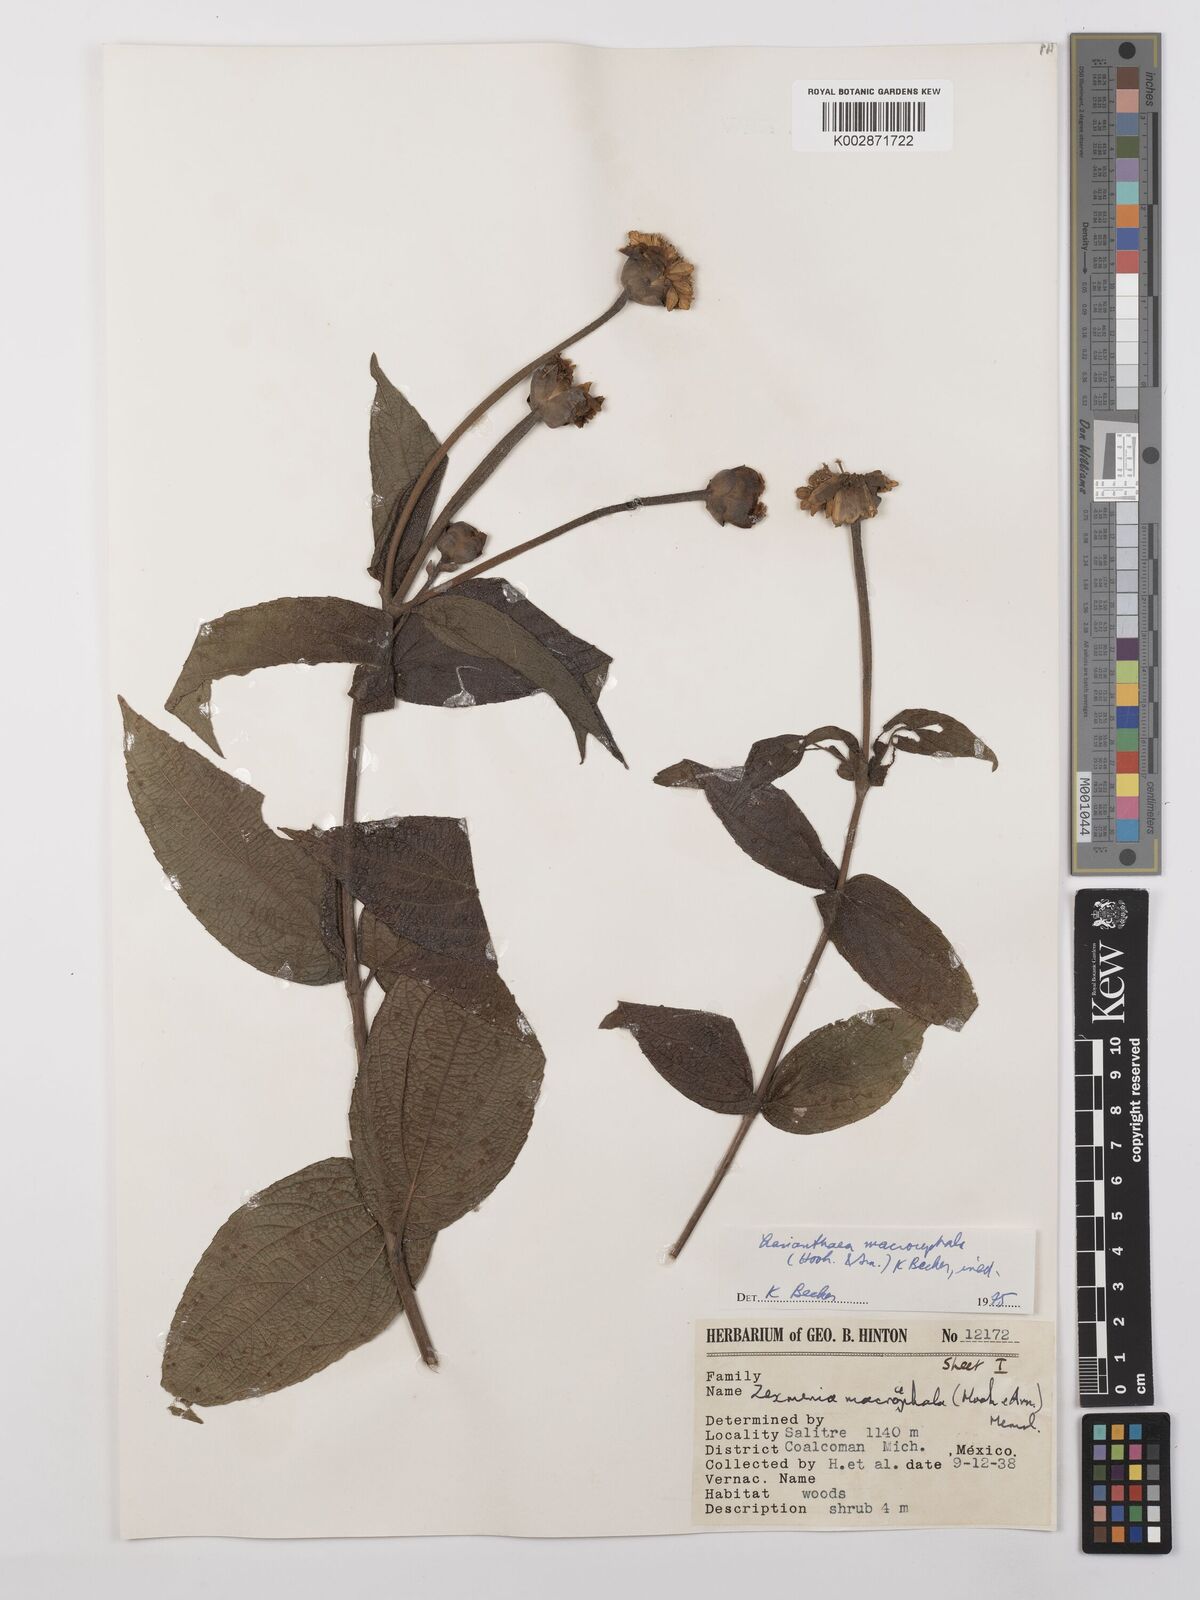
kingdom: Plantae
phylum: Tracheophyta
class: Magnoliopsida
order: Asterales
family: Asteraceae
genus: Lasianthaea
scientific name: Lasianthaea macrocephala
